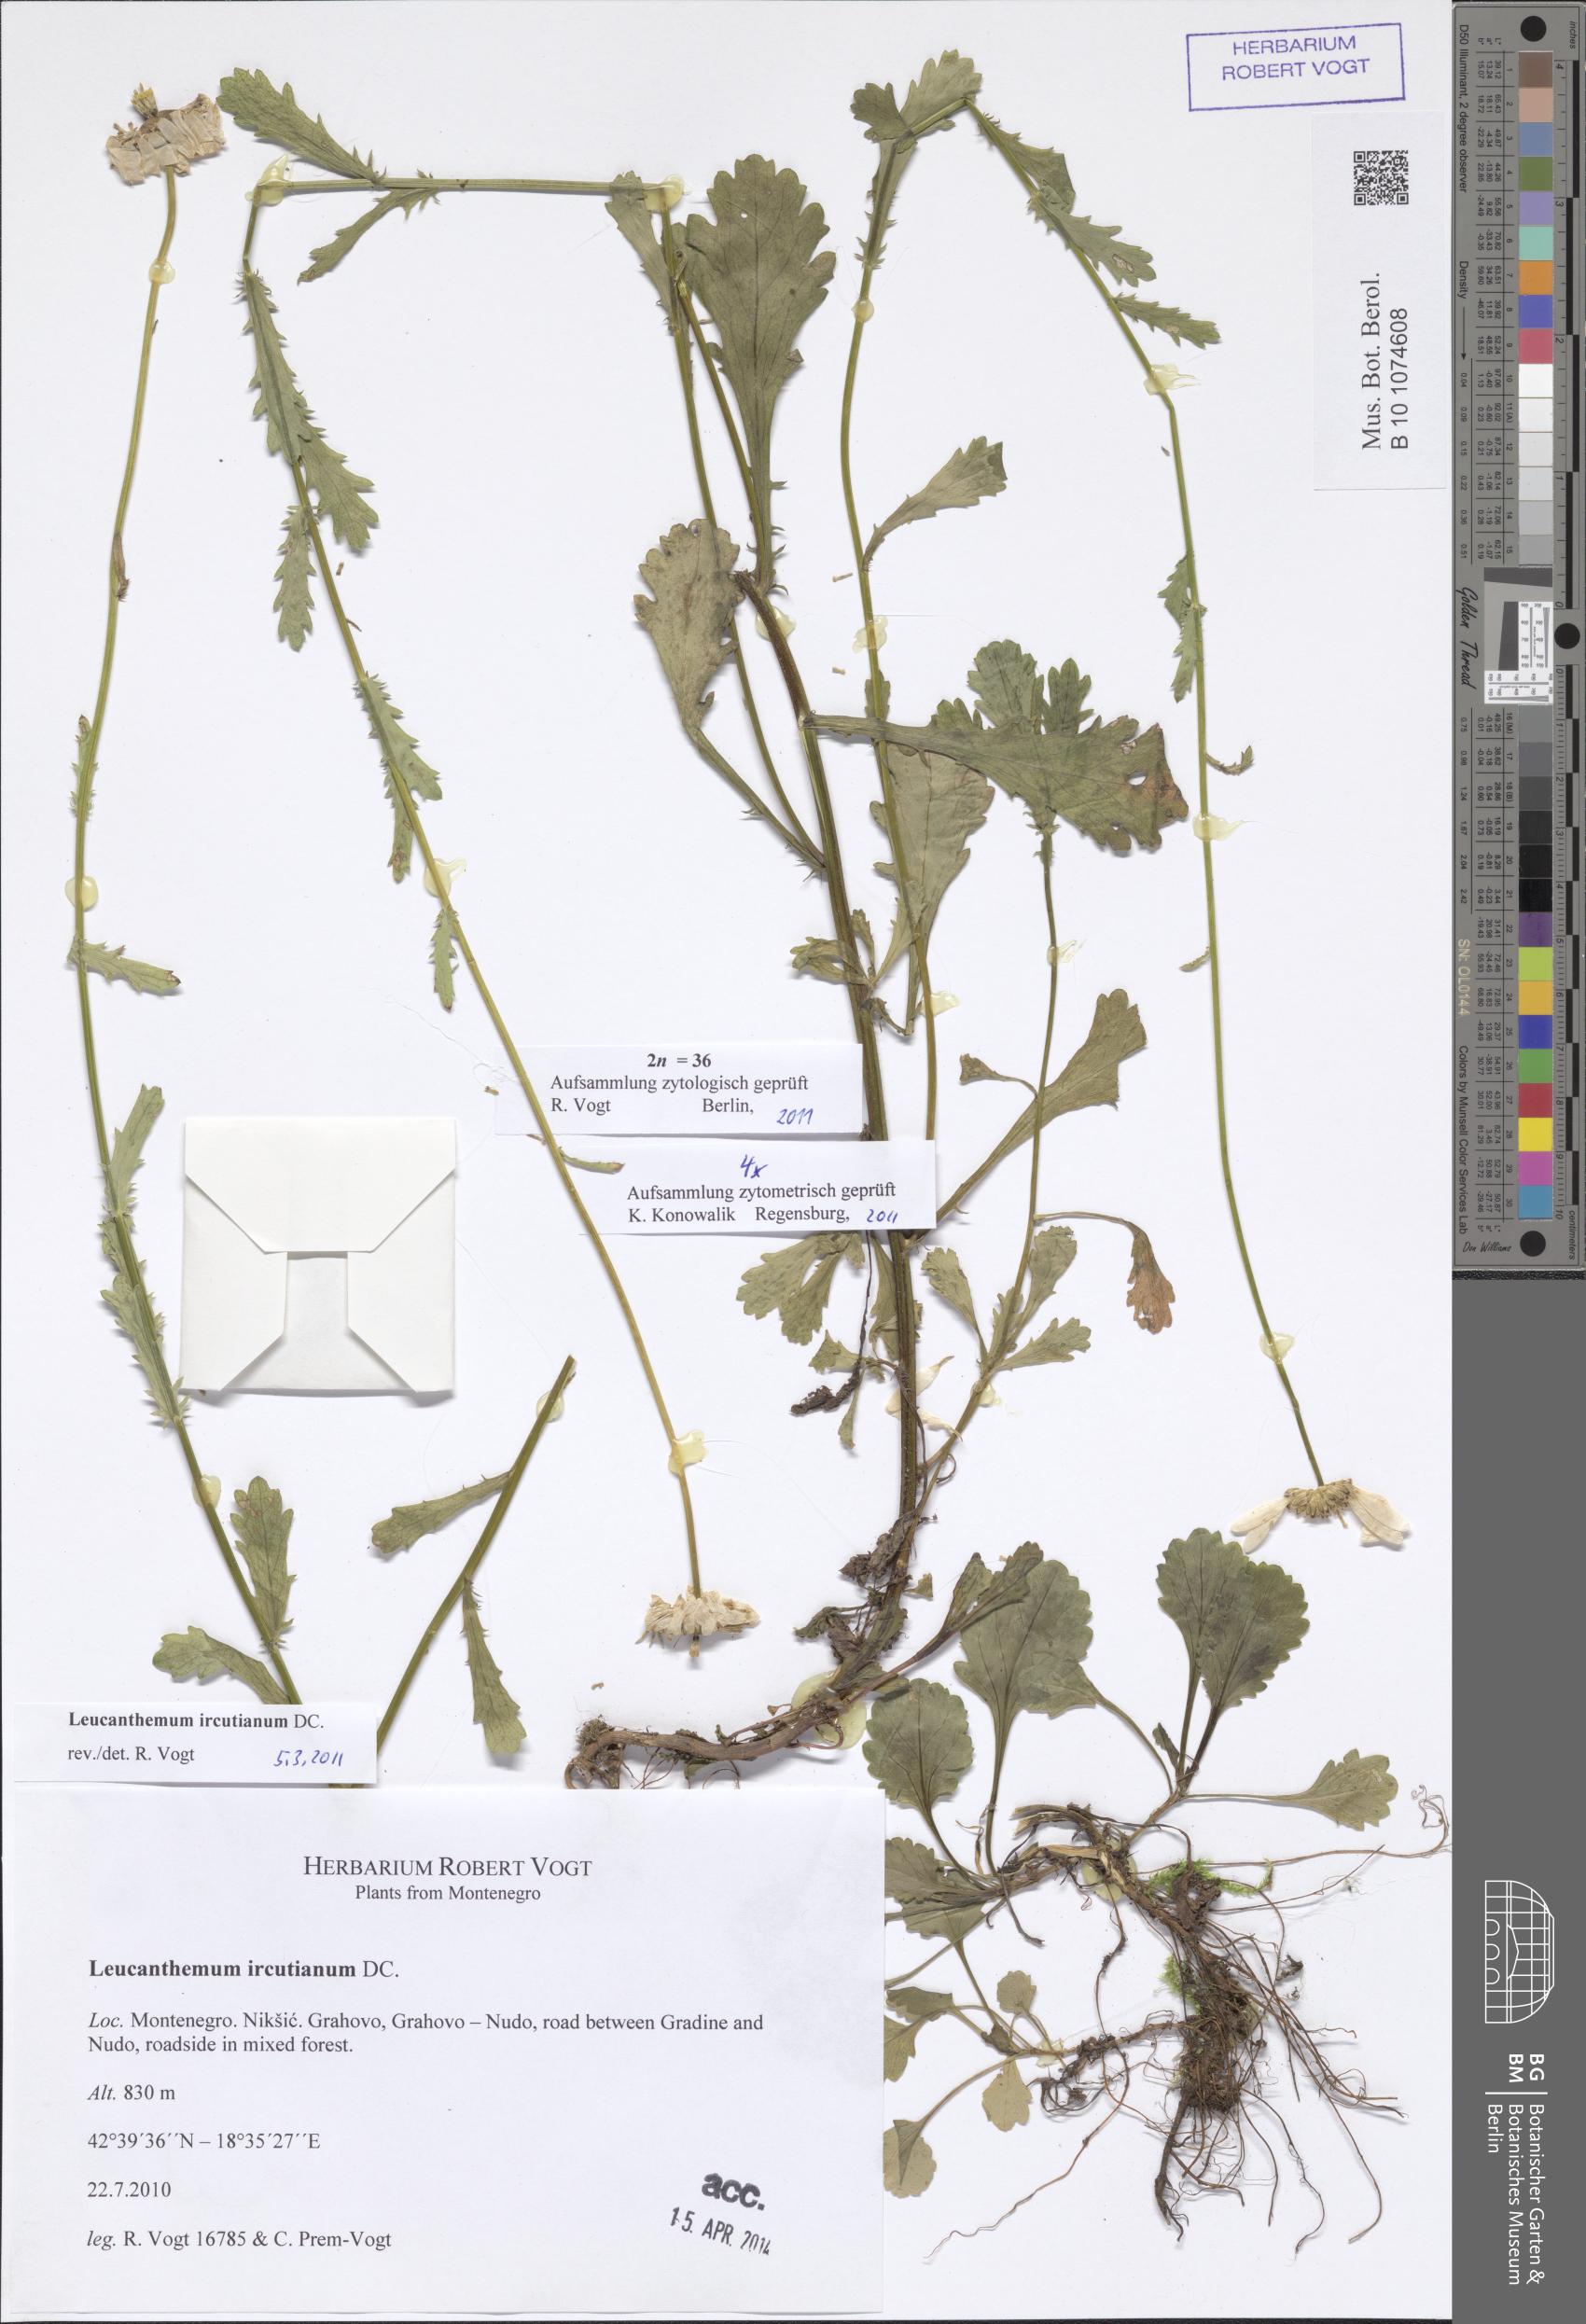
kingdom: Plantae
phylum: Tracheophyta
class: Magnoliopsida
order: Asterales
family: Asteraceae
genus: Leucanthemum
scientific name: Leucanthemum ircutianum
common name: Daisy
